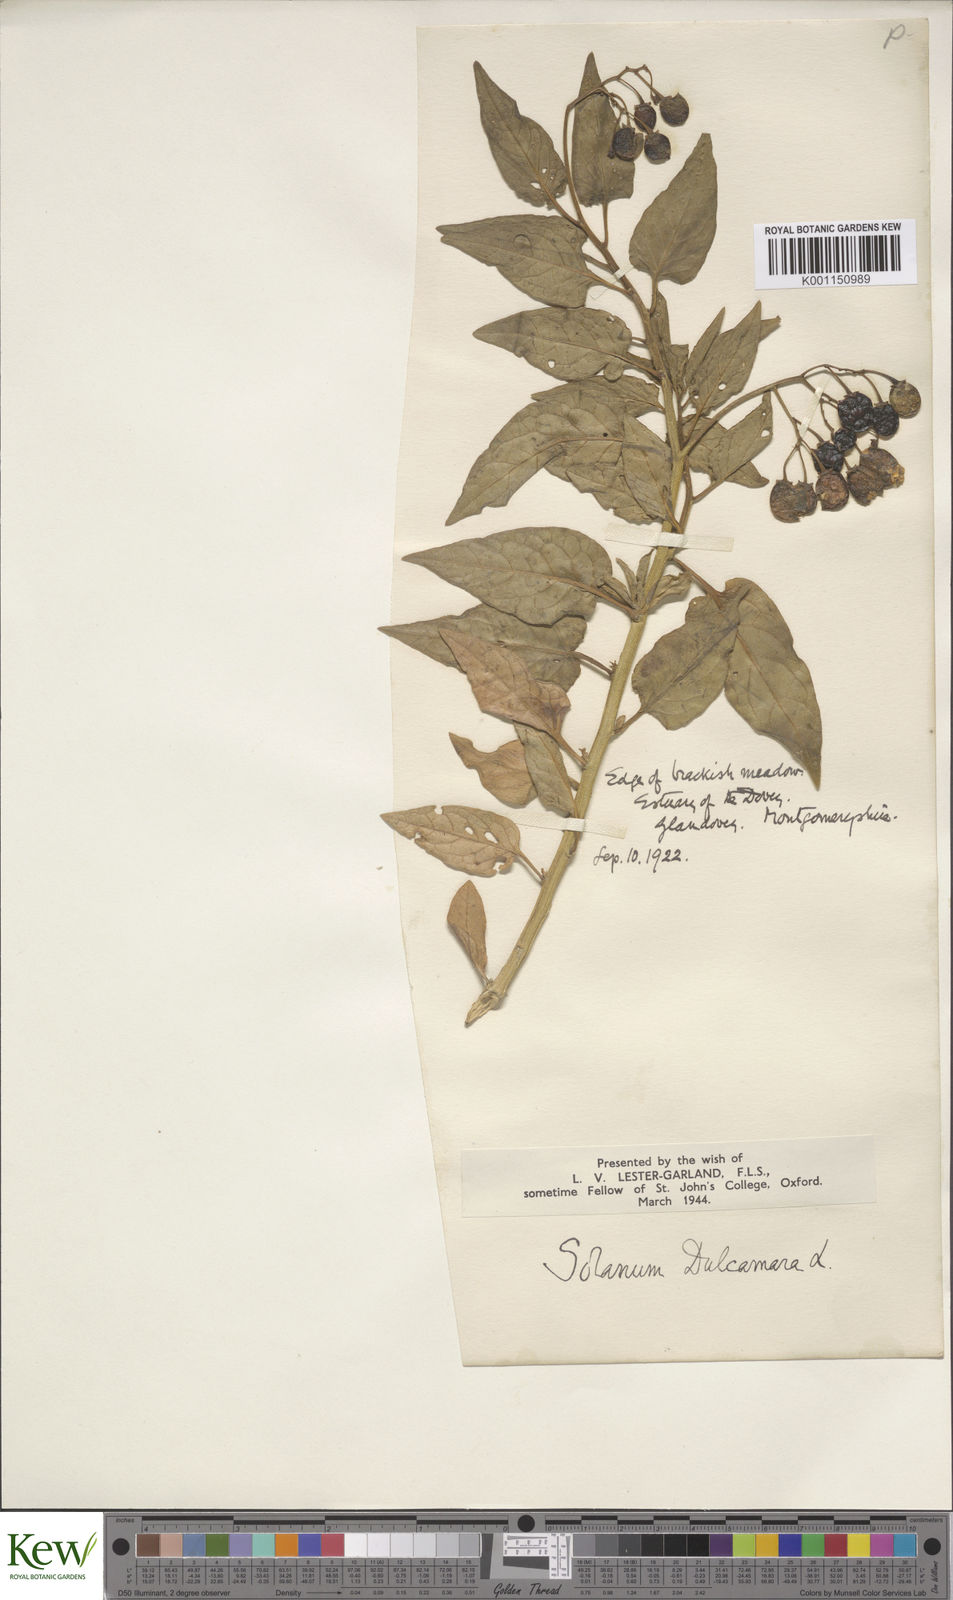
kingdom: Plantae
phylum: Tracheophyta
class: Magnoliopsida
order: Solanales
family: Solanaceae
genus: Solanum
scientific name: Solanum dulcamara
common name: Climbing nightshade
